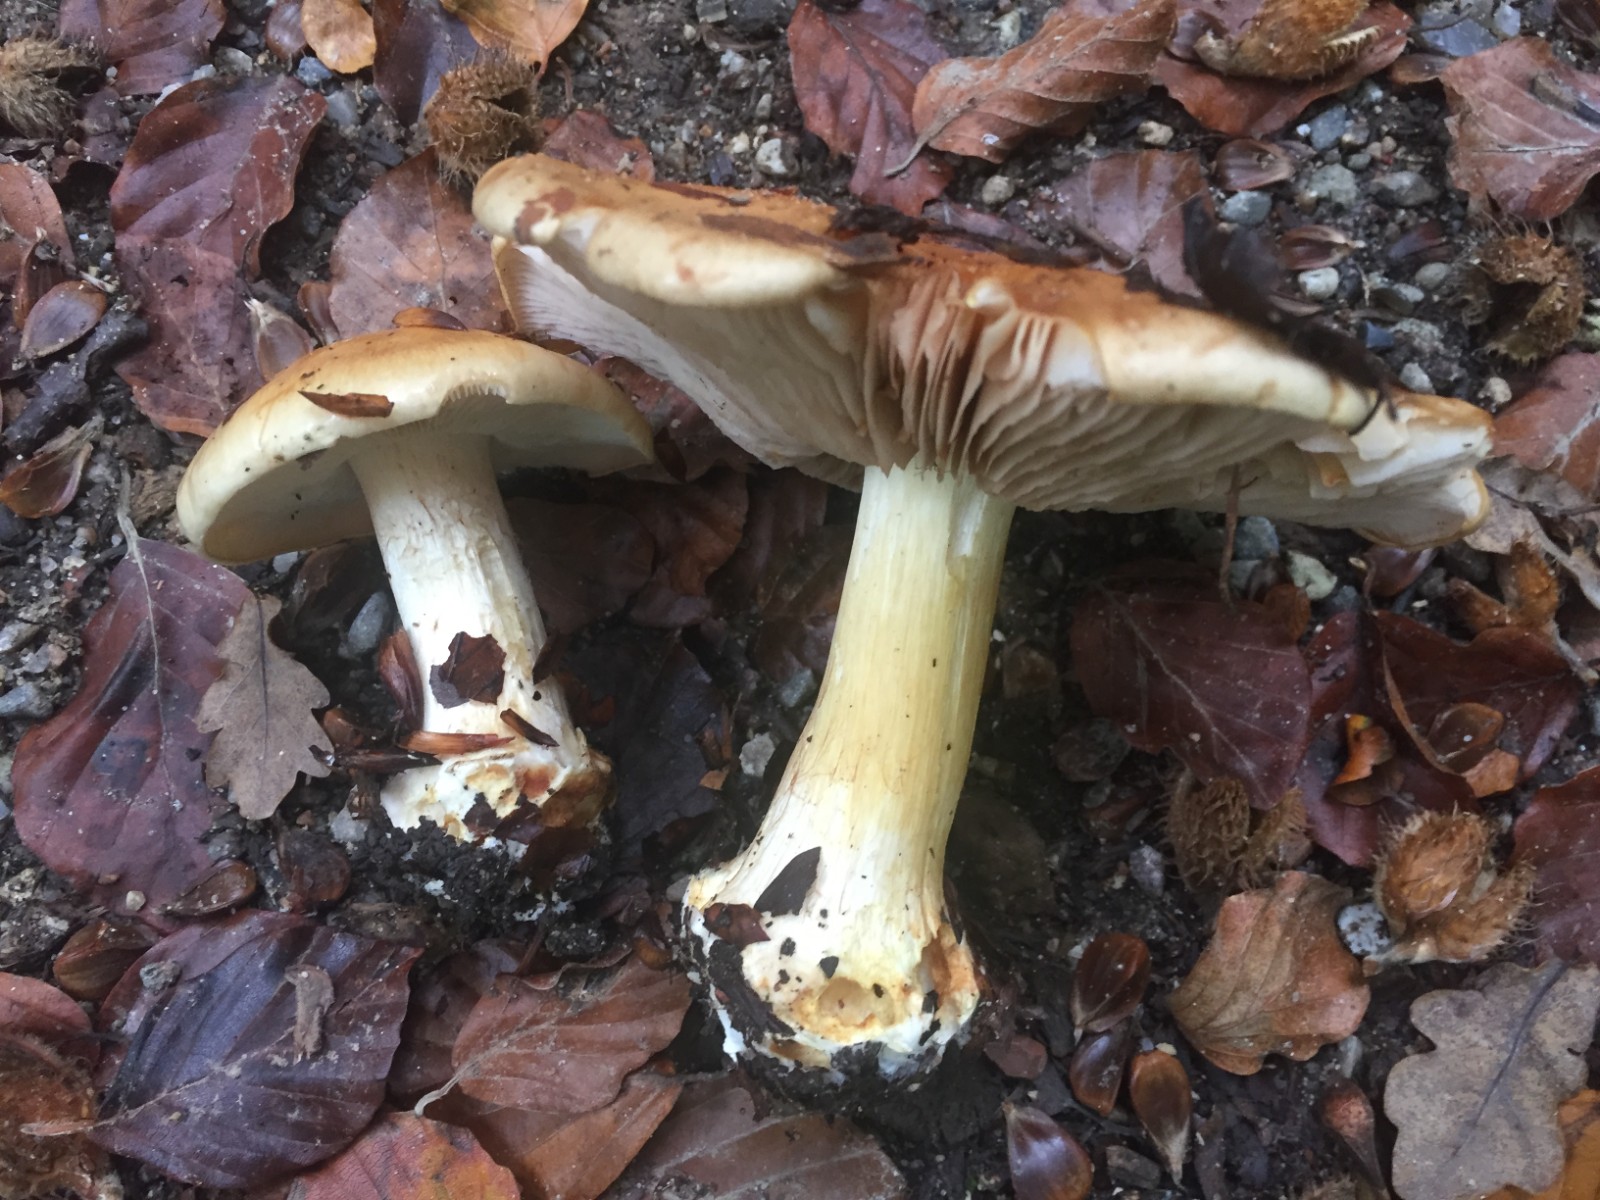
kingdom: Fungi
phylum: Basidiomycota
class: Agaricomycetes
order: Agaricales
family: Cortinariaceae
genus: Thaxterogaster
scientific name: Thaxterogaster talus
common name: knogle-slørhat
